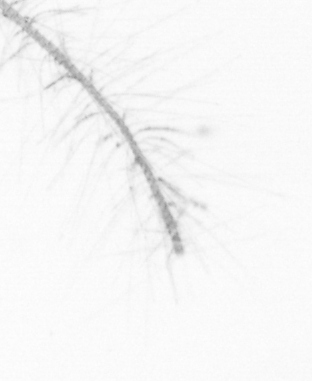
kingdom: Chromista
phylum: Ochrophyta
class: Bacillariophyceae
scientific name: Bacillariophyceae
